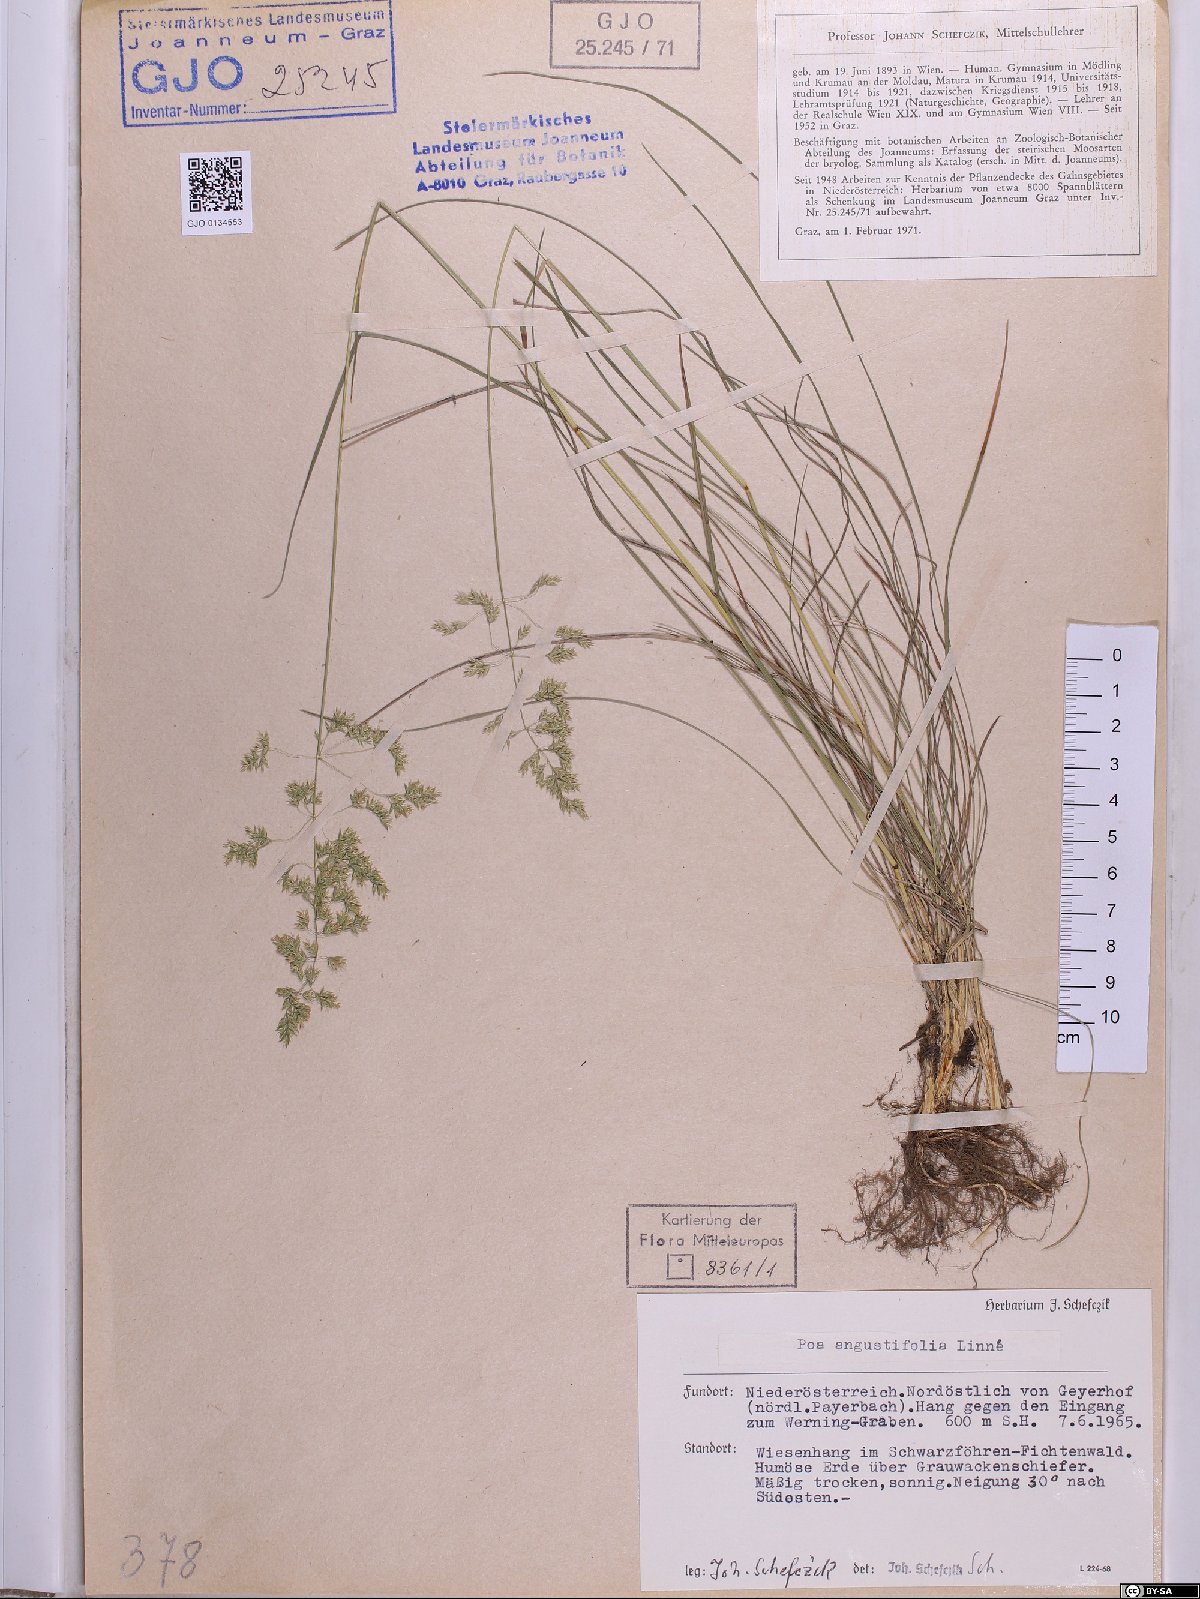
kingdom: Plantae
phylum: Tracheophyta
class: Liliopsida
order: Poales
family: Poaceae
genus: Poa
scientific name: Poa angustifolia
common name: Narrow-leaved meadow-grass
